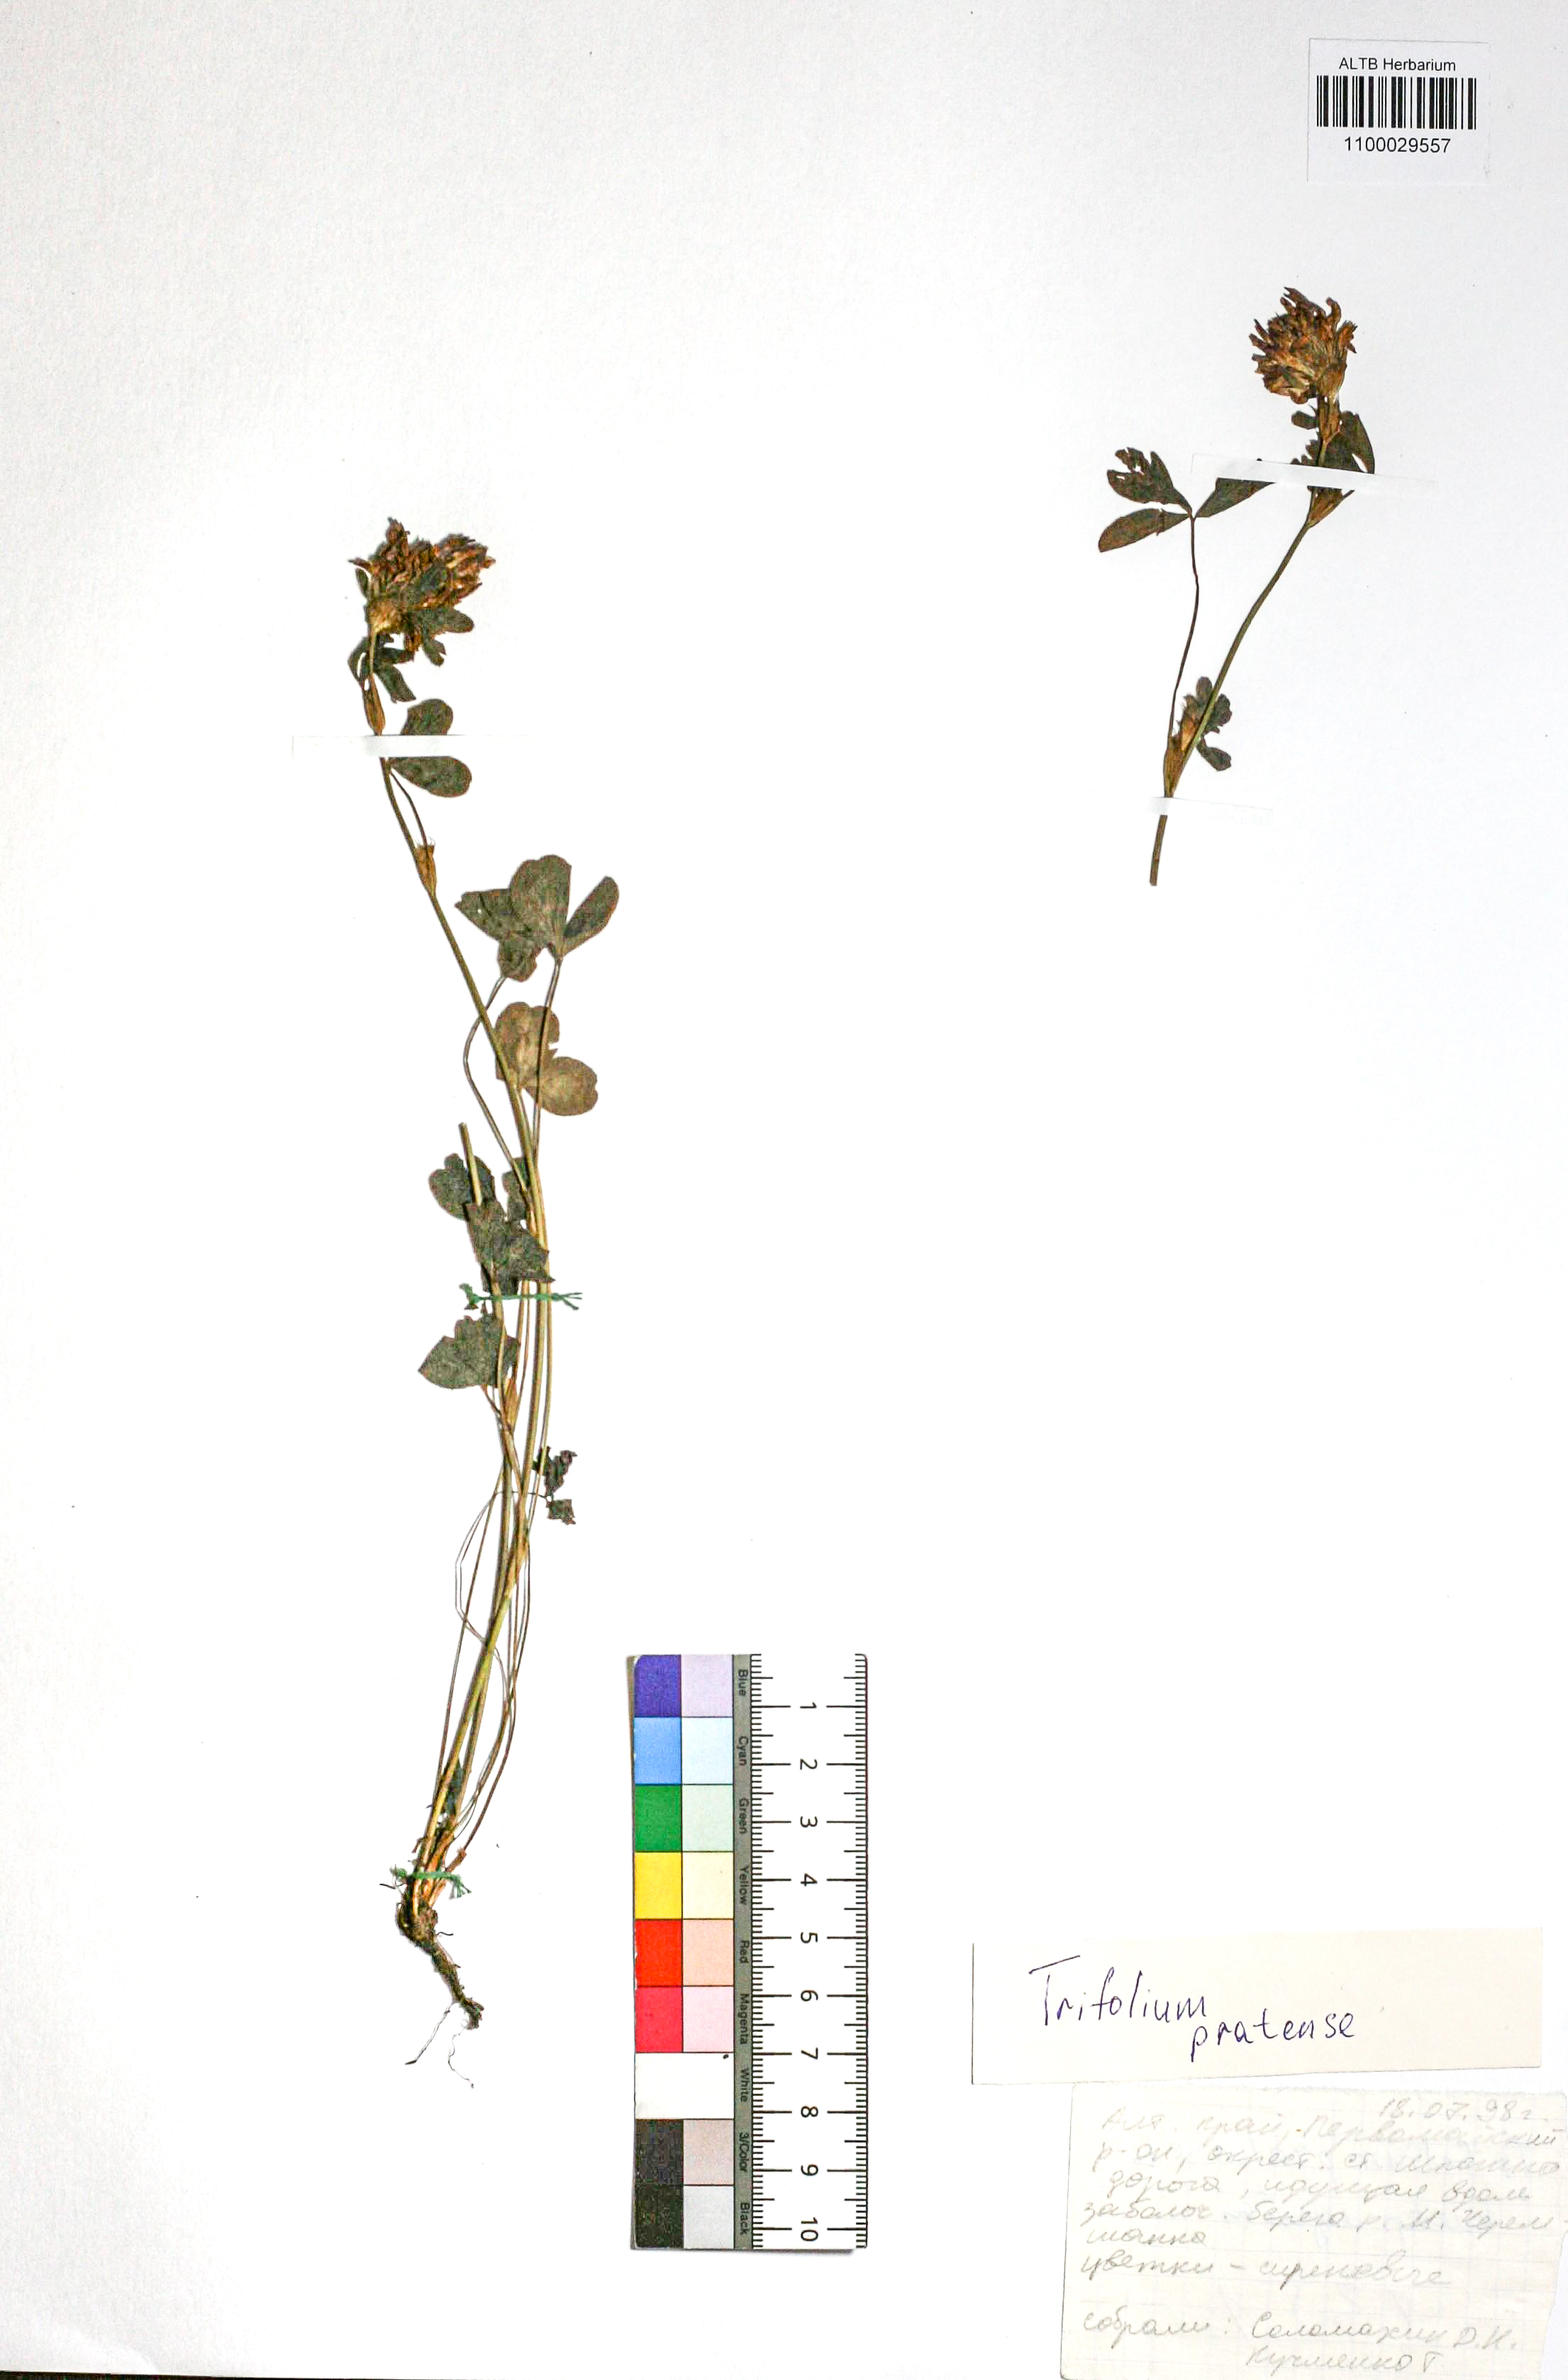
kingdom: Plantae
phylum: Tracheophyta
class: Magnoliopsida
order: Fabales
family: Fabaceae
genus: Trifolium
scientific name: Trifolium pratense
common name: Red clover
